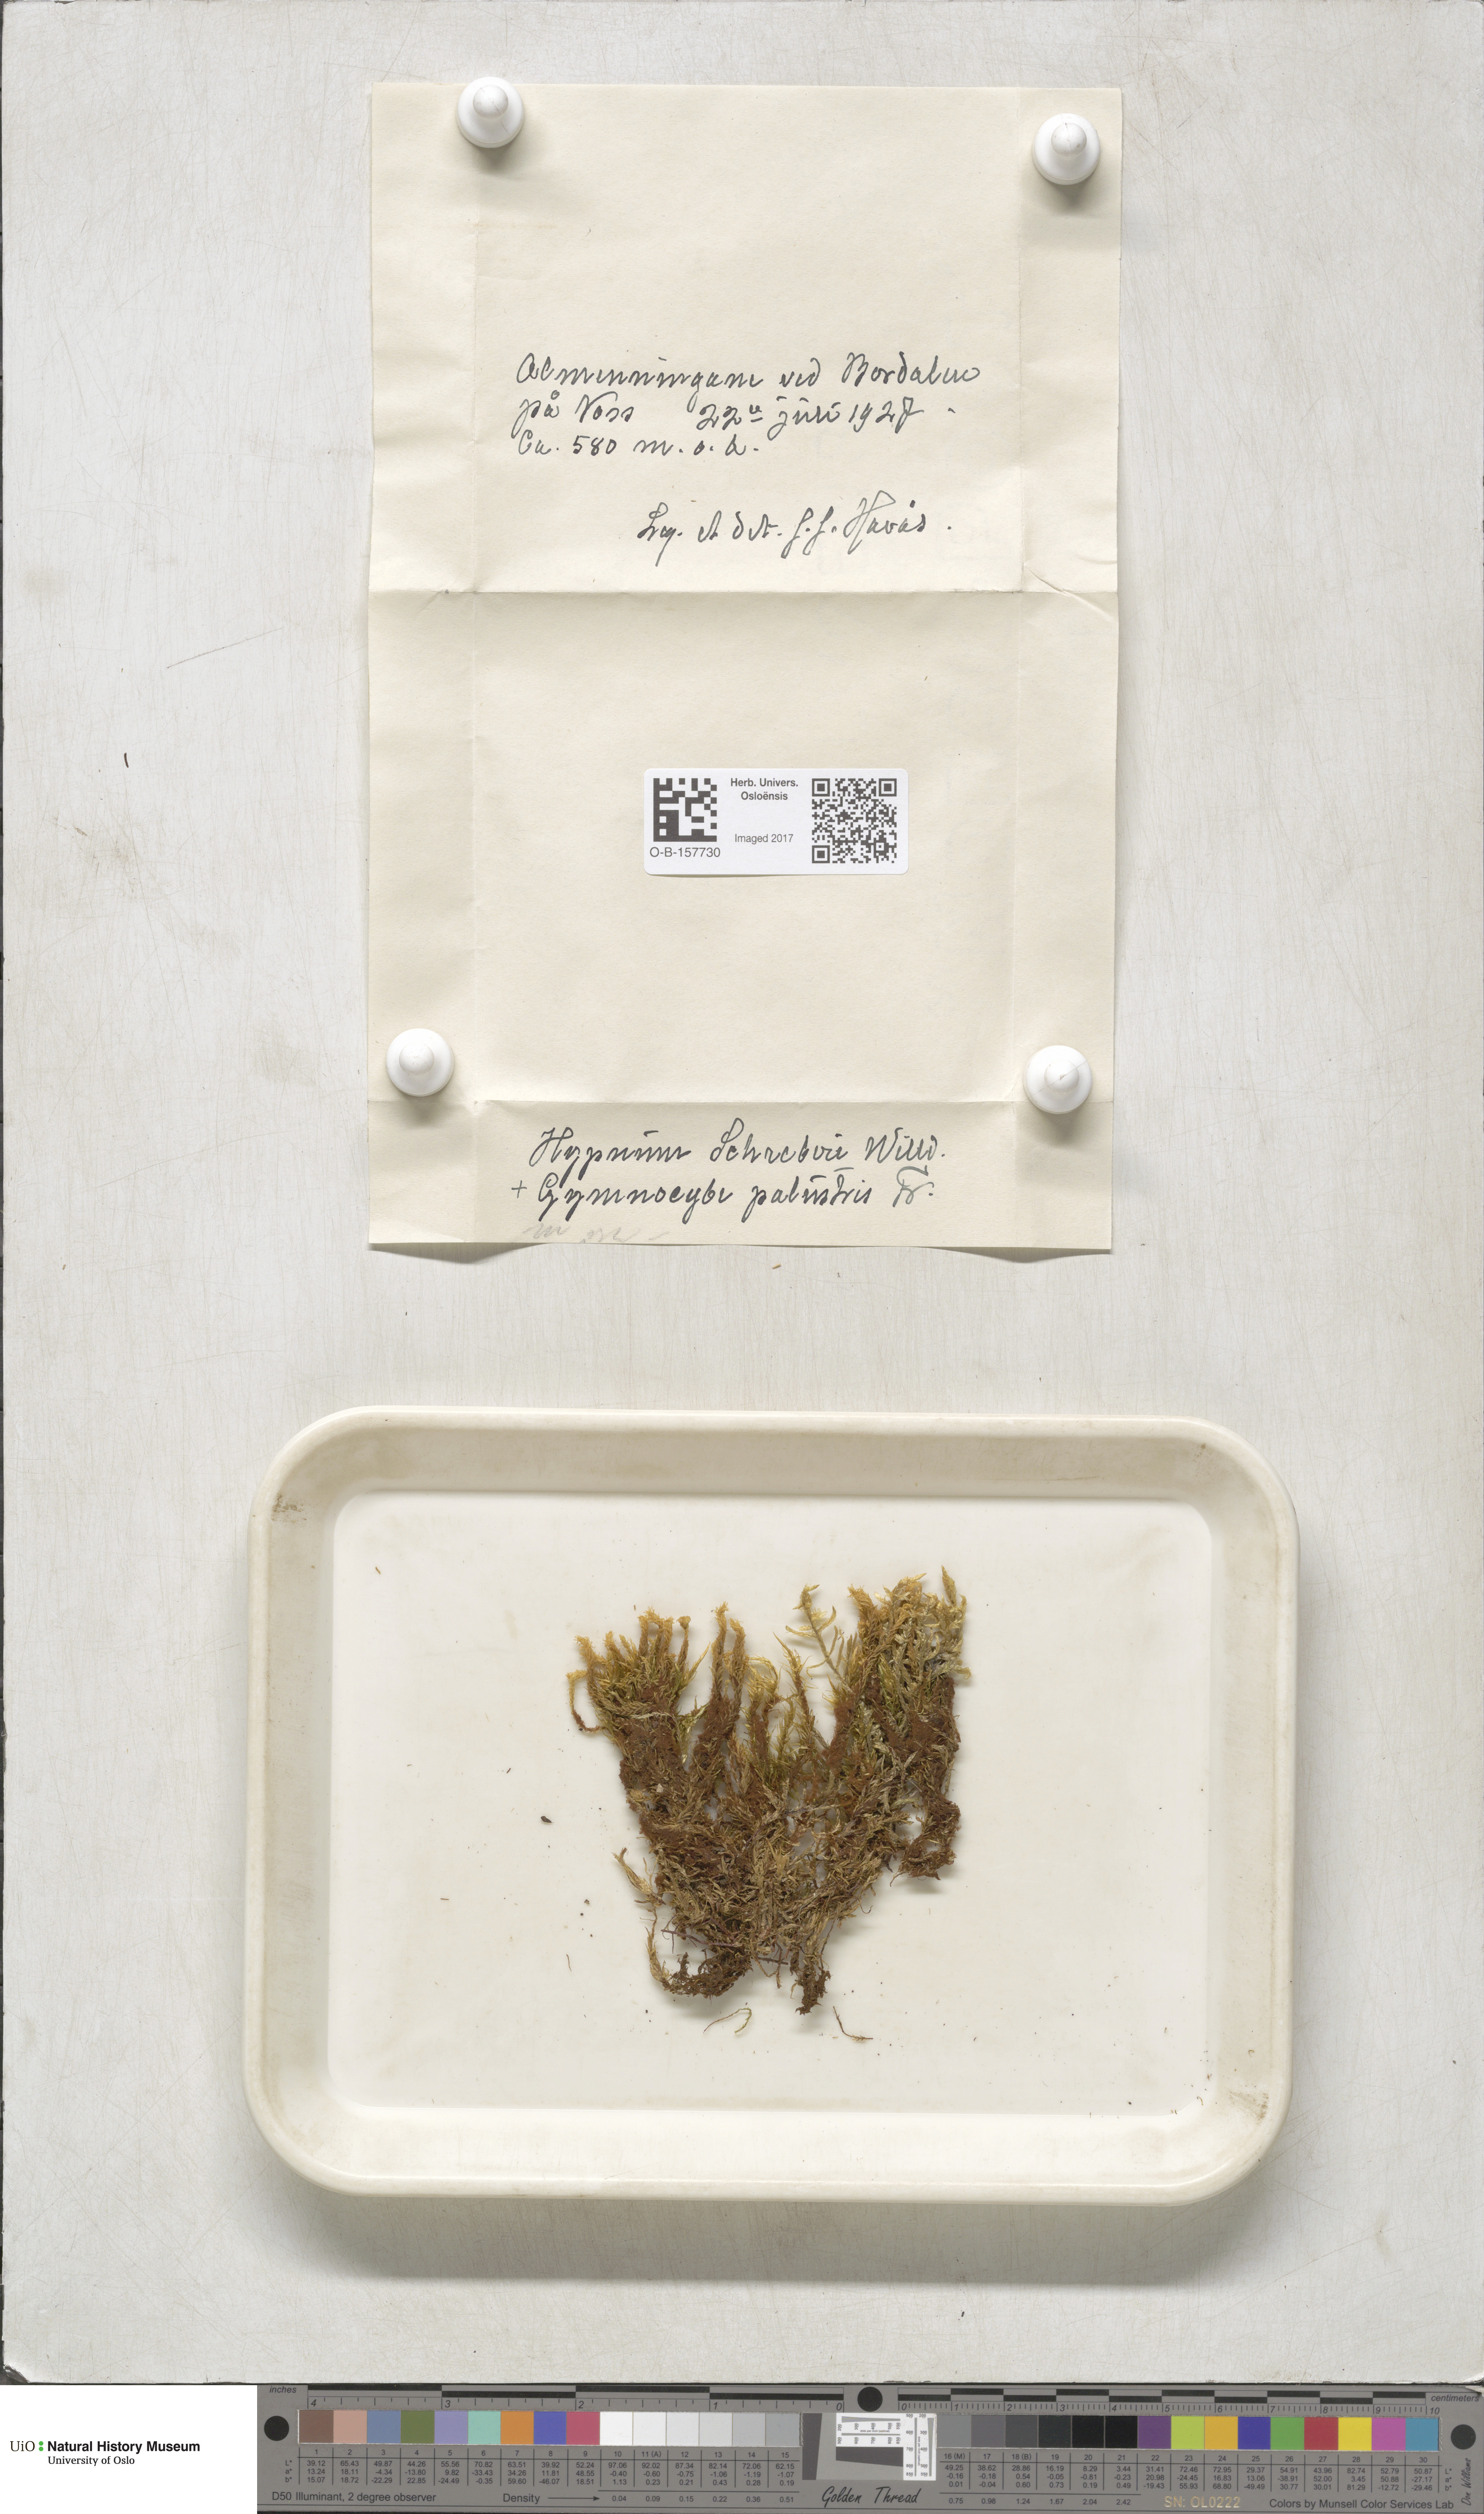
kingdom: Plantae
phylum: Bryophyta
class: Bryopsida
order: Hypnales
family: Hylocomiaceae
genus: Pleurozium
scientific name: Pleurozium schreberi
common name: Red-stemmed feather moss
